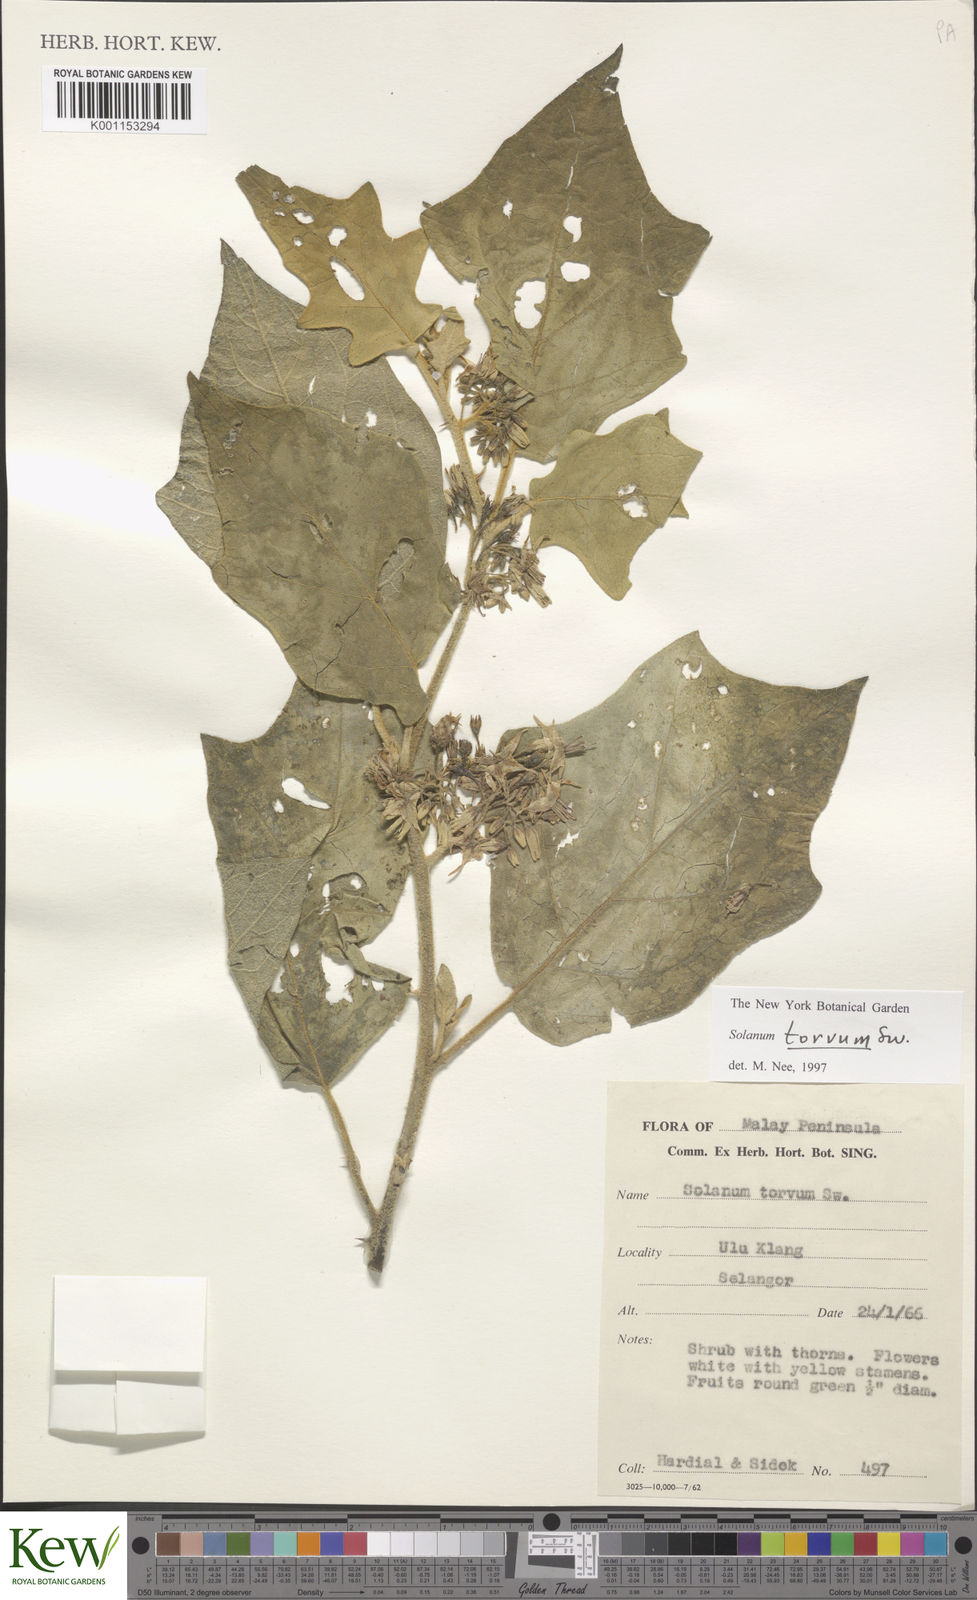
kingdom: Plantae
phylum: Tracheophyta
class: Magnoliopsida
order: Solanales
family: Solanaceae
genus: Solanum
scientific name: Solanum torvum
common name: Turkey berry
